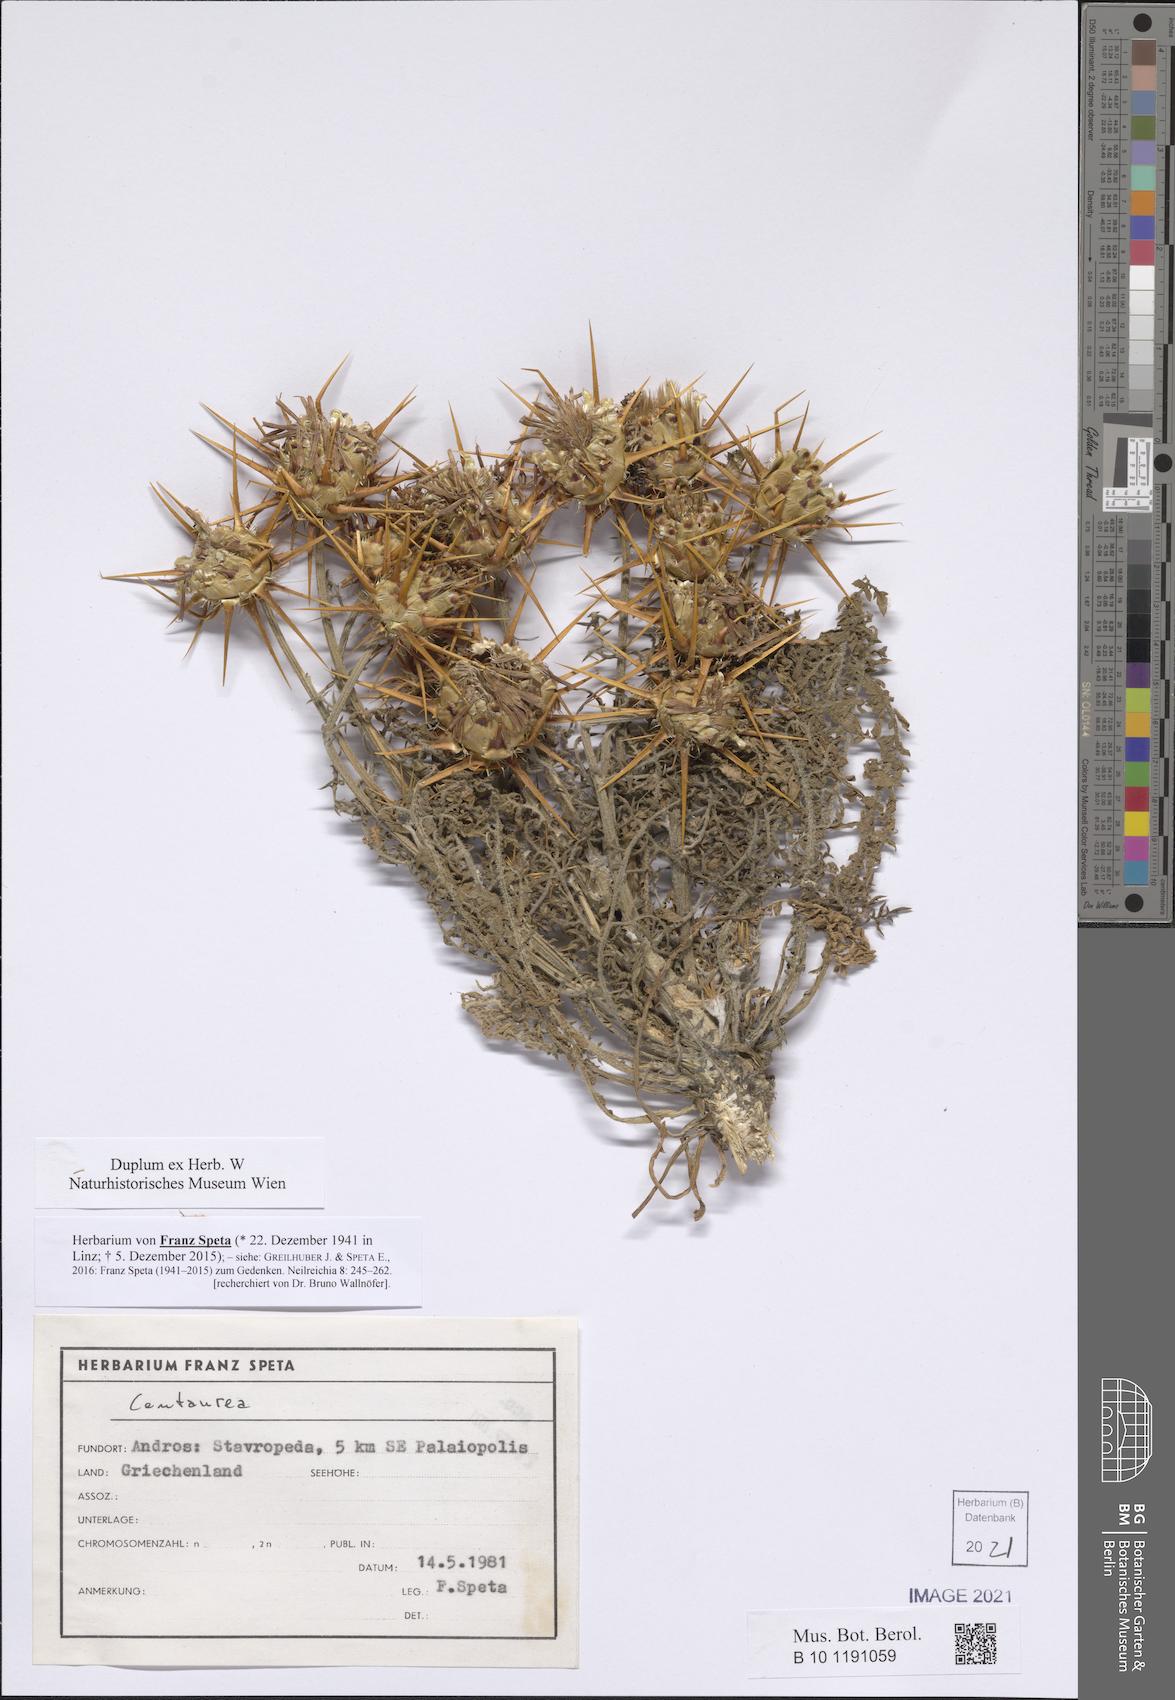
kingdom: Plantae
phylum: Tracheophyta
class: Magnoliopsida
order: Asterales
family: Asteraceae
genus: Centaurea
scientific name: Centaurea
